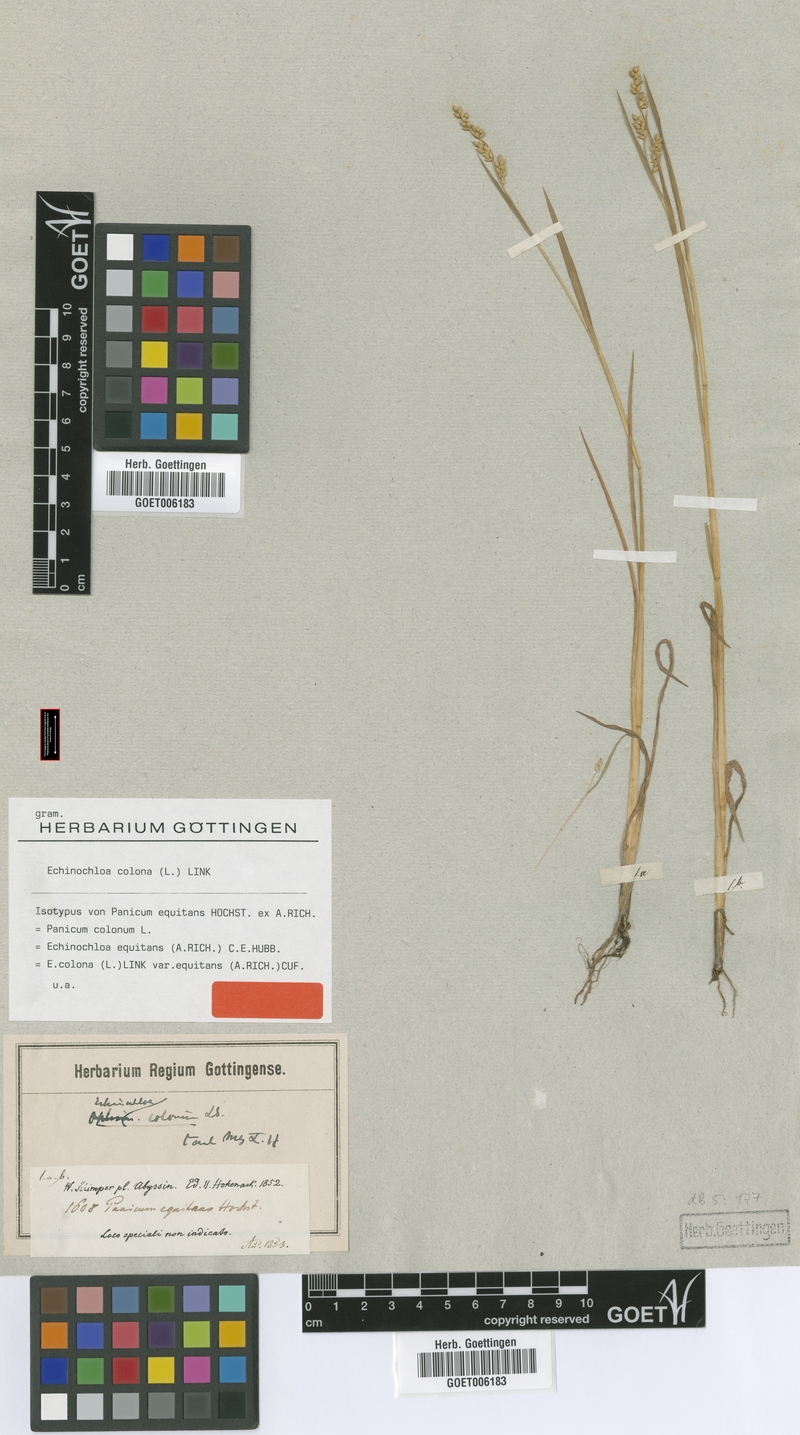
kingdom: Plantae
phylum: Tracheophyta
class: Liliopsida
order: Poales
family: Poaceae
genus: Echinochloa
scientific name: Echinochloa colonum
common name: Jungle rice
